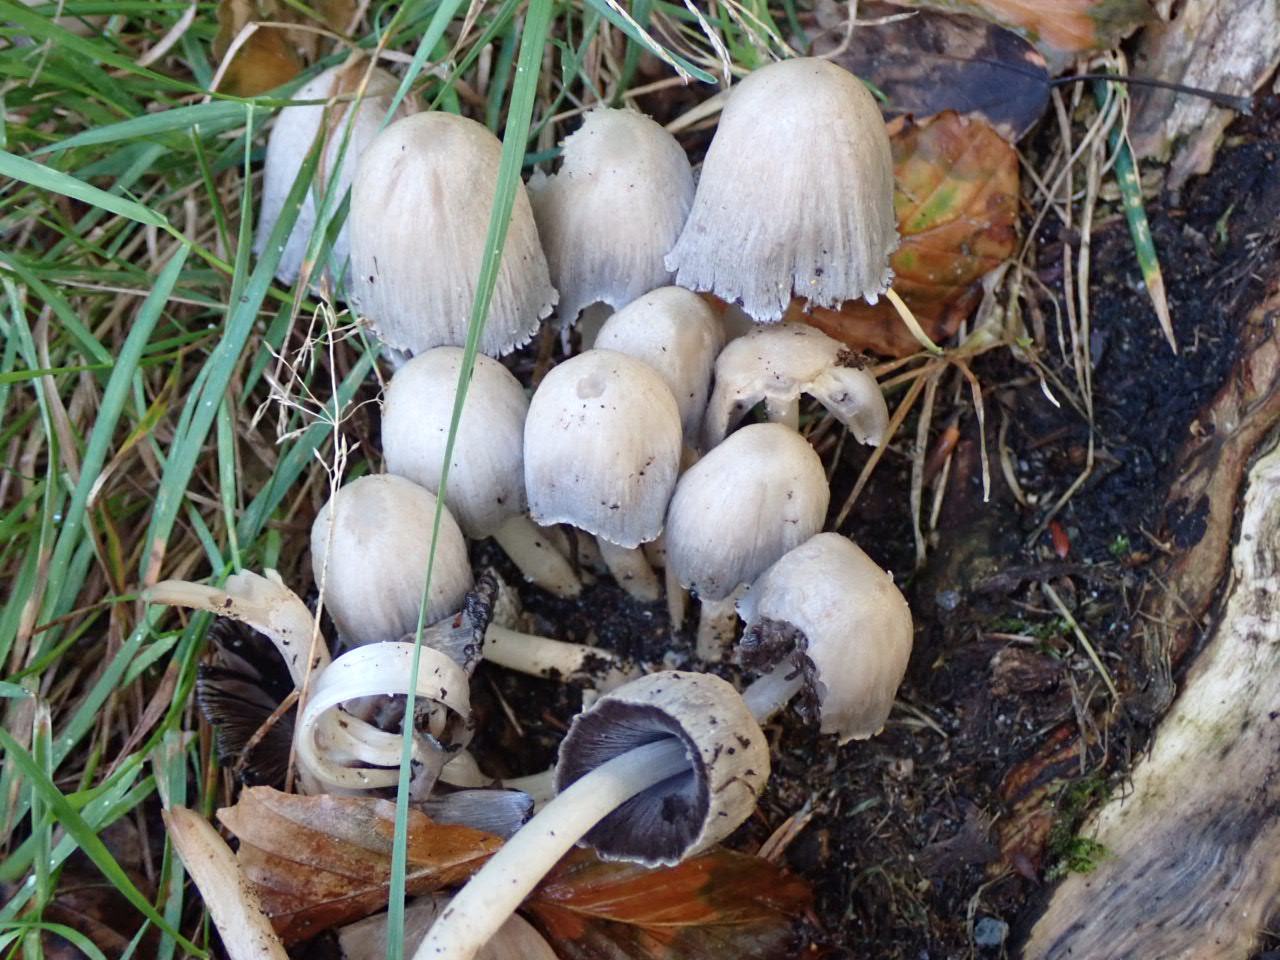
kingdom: Fungi
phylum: Basidiomycota
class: Agaricomycetes
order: Agaricales
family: Psathyrellaceae
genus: Coprinopsis
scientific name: Coprinopsis atramentaria
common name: almindelig blækhat
